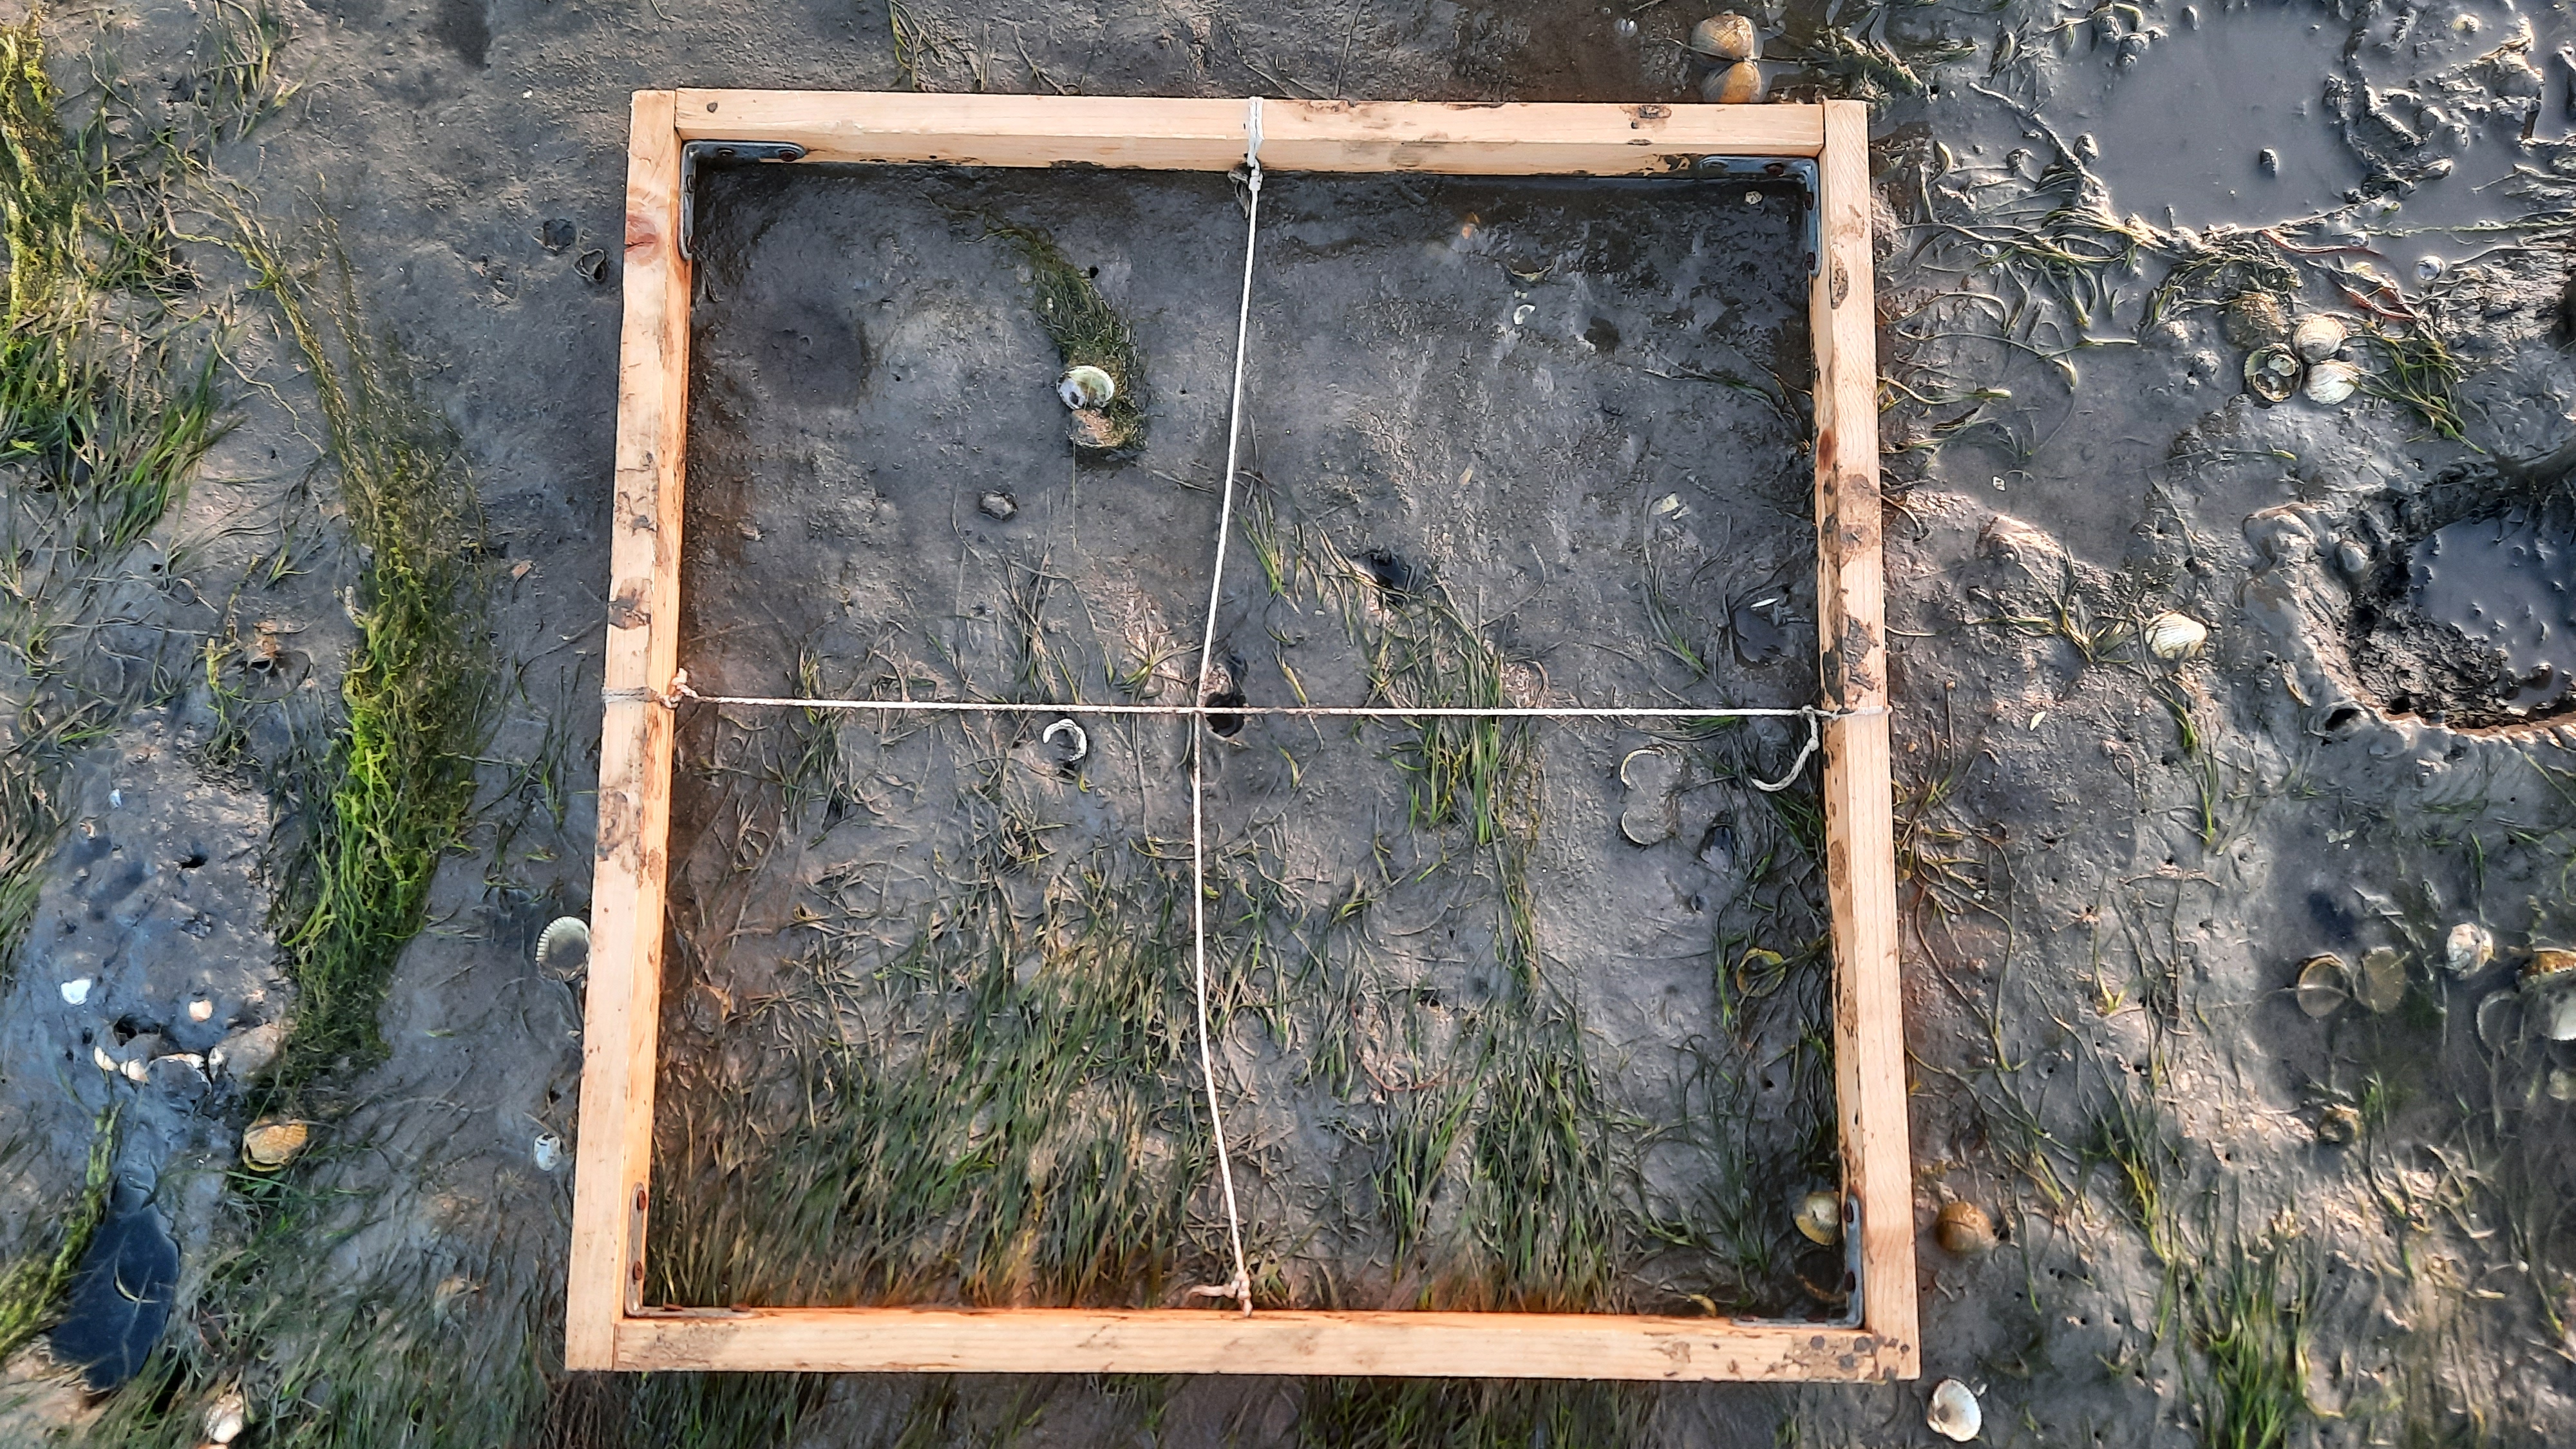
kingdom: Plantae
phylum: Tracheophyta
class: Liliopsida
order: Alismatales
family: Zosteraceae
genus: Zostera
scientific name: Zostera noltii
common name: Dwarf eelgrass
